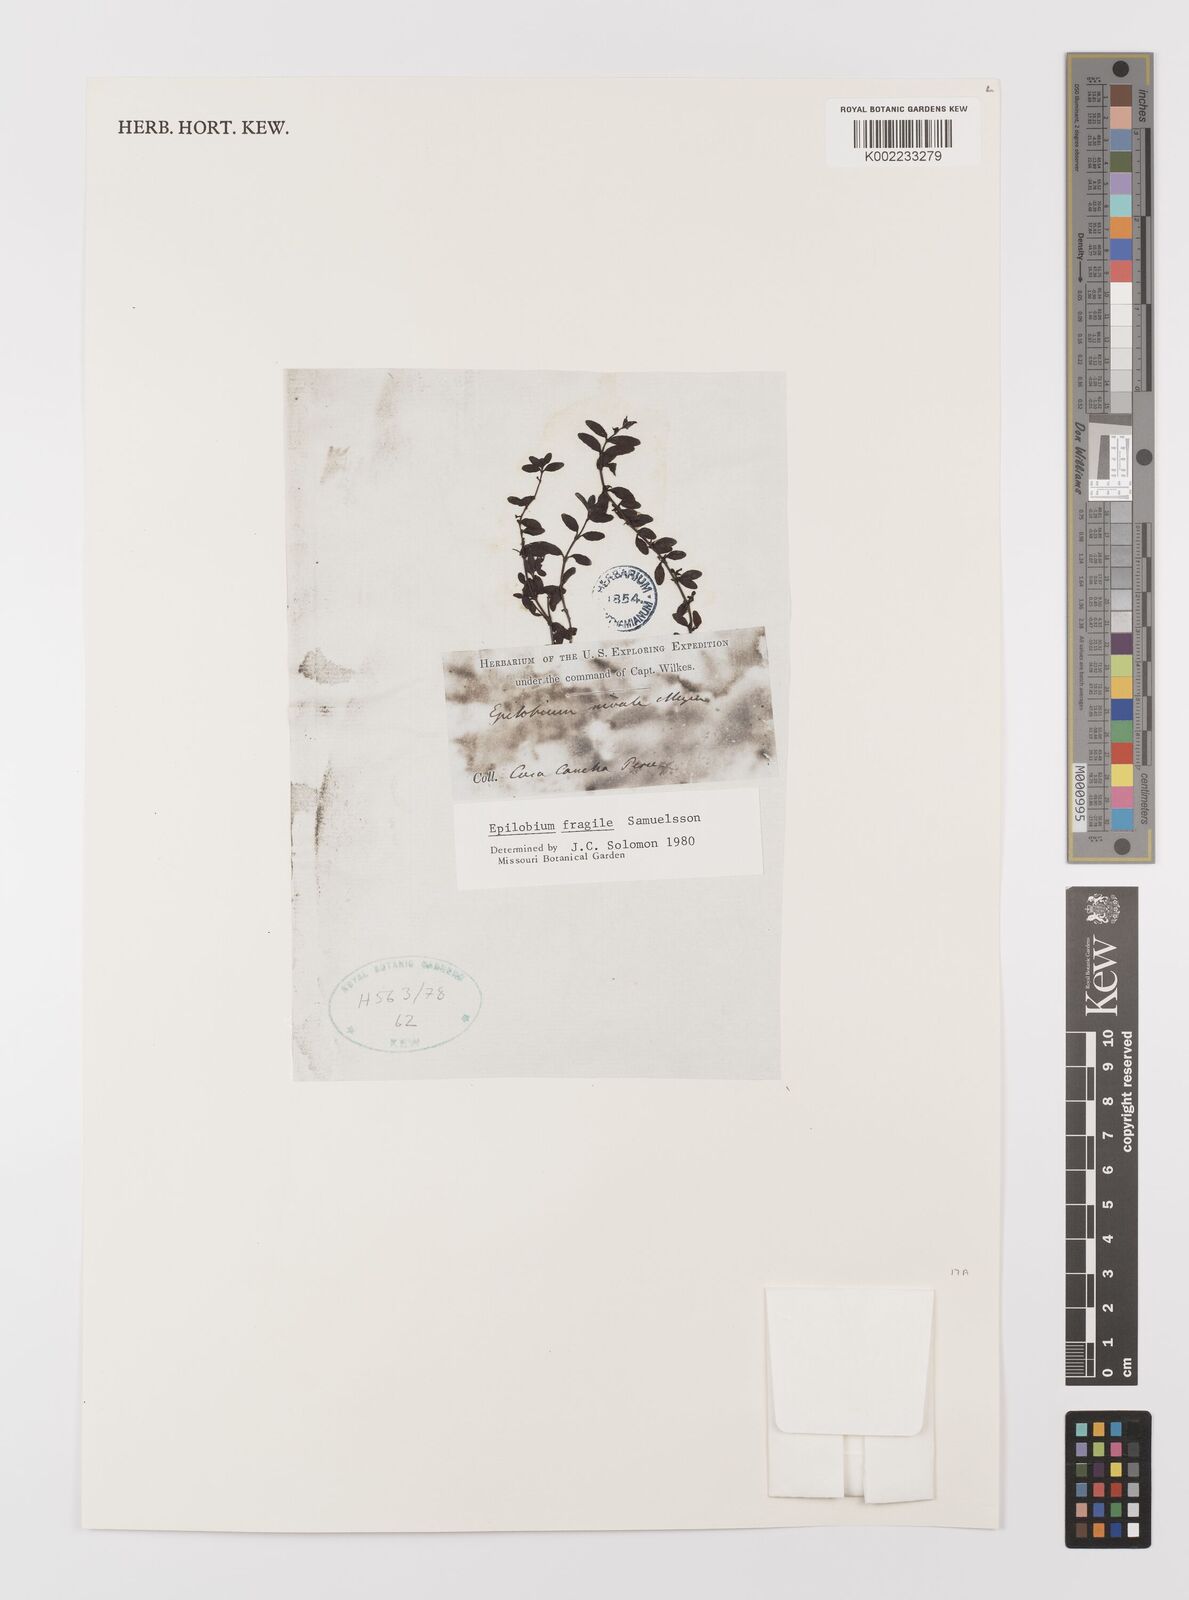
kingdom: Plantae
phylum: Tracheophyta
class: Magnoliopsida
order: Myrtales
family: Onagraceae
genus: Epilobium
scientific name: Epilobium fragile
